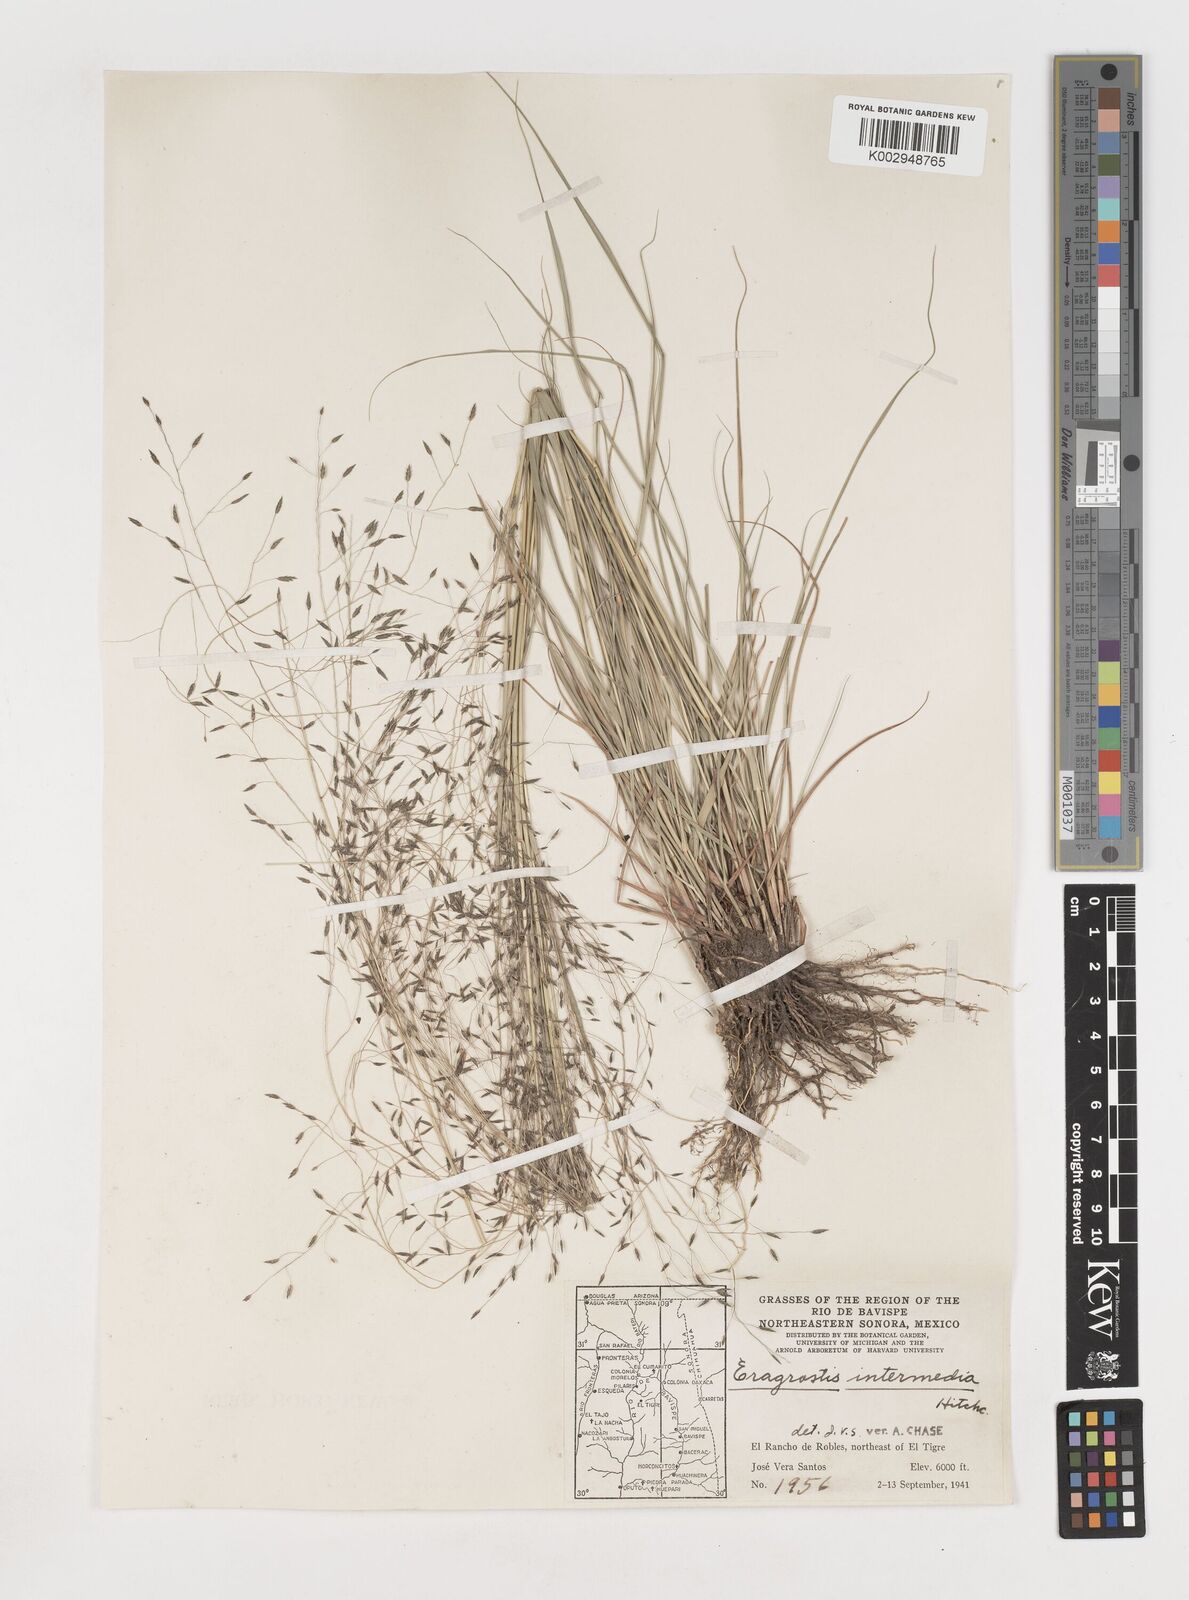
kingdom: Plantae
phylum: Tracheophyta
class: Liliopsida
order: Poales
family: Poaceae
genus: Eragrostis
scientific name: Eragrostis
